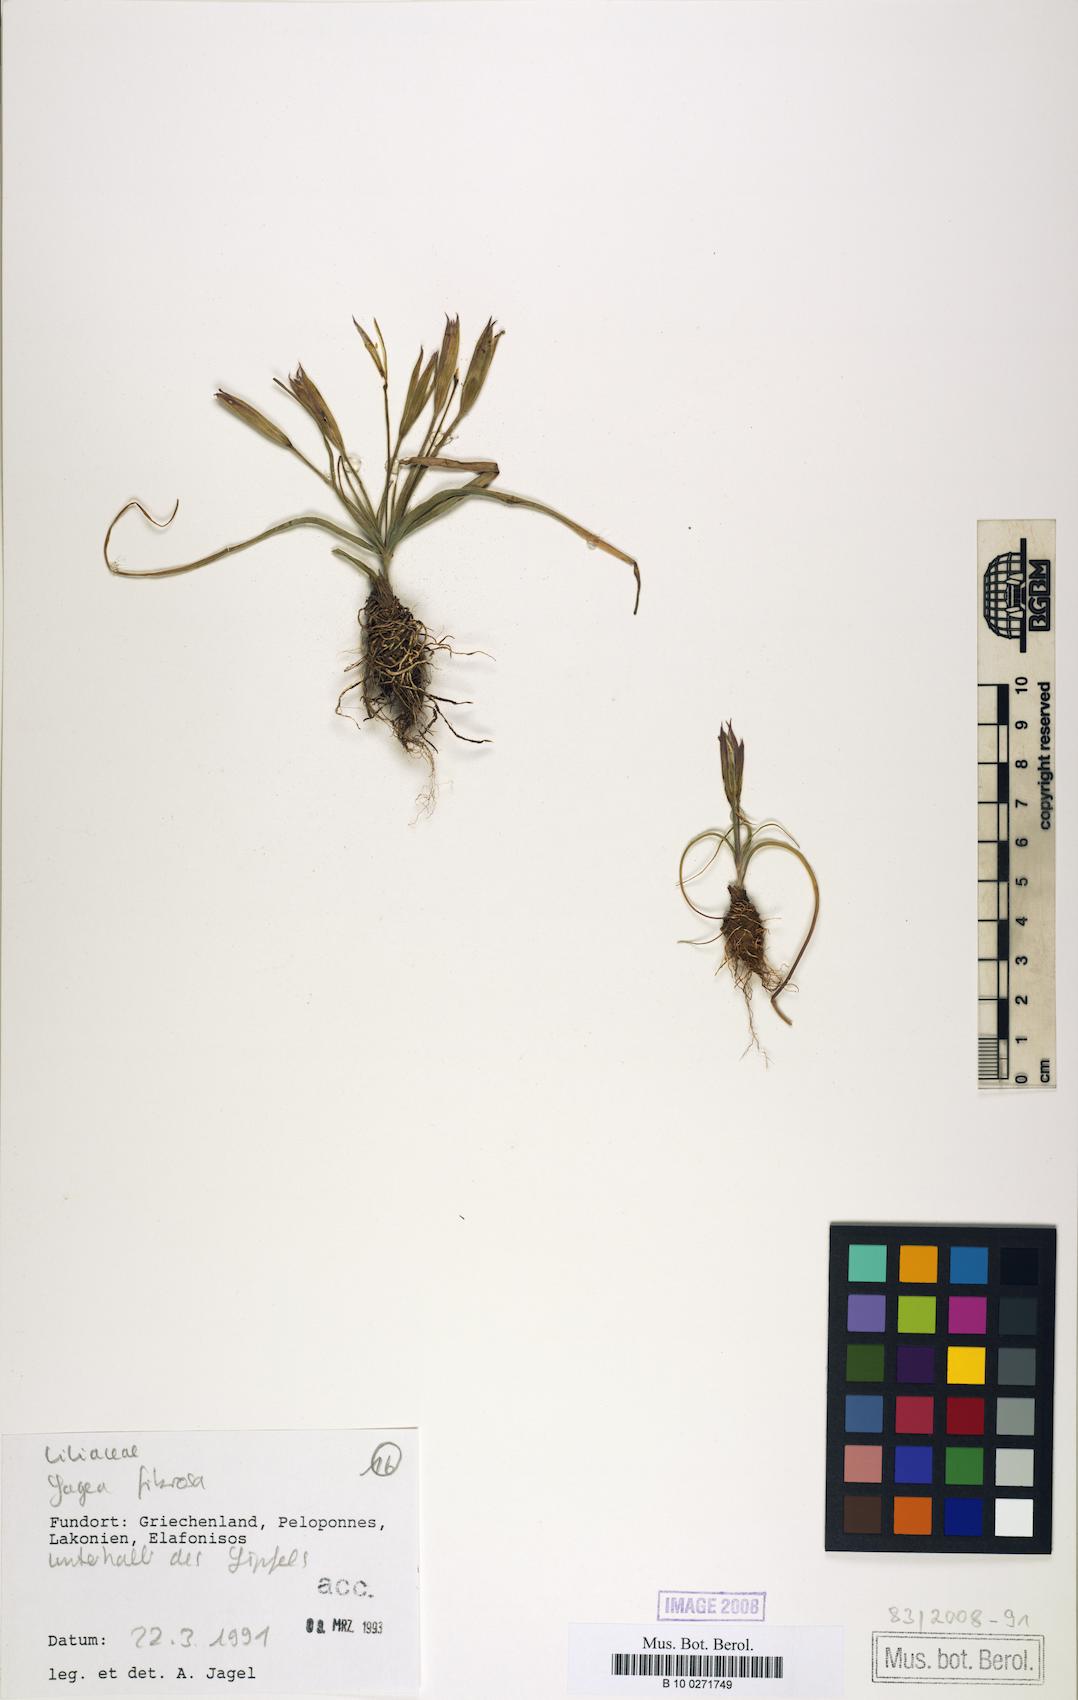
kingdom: Plantae
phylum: Tracheophyta
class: Liliopsida
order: Liliales
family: Liliaceae
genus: Gagea
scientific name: Gagea fibrosa
